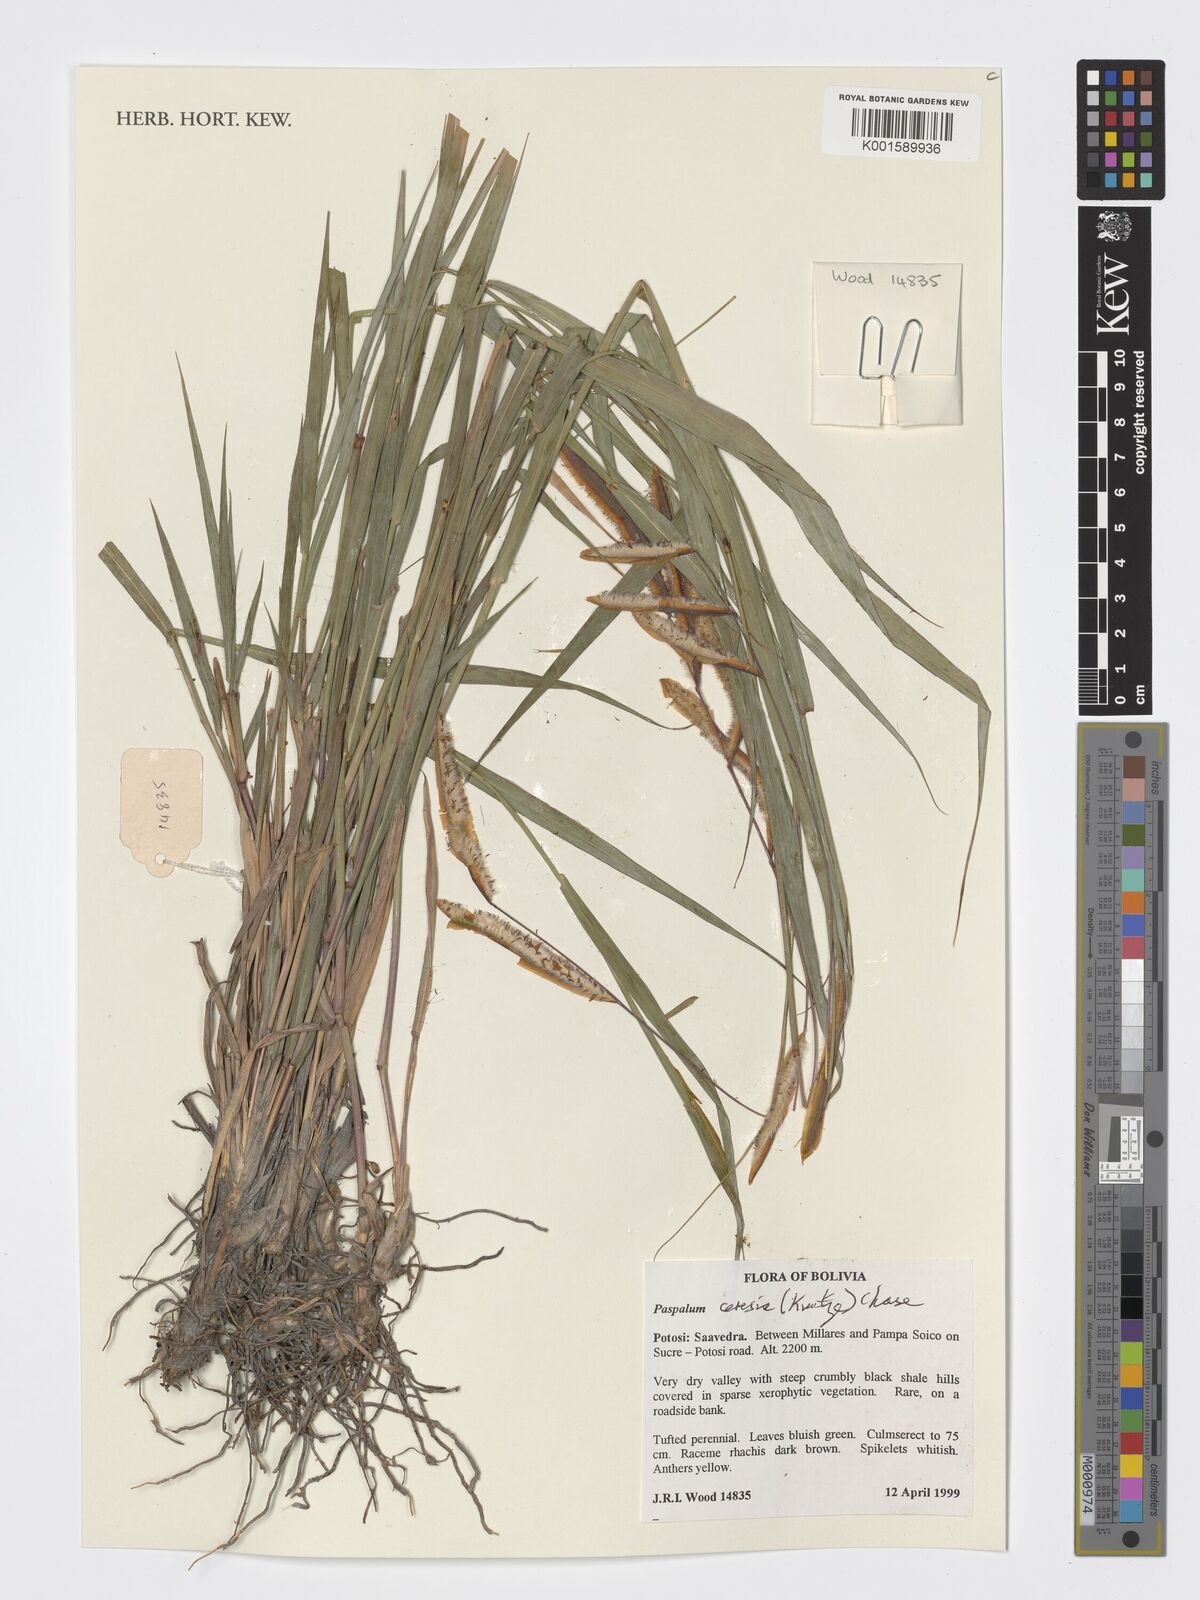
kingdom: Plantae
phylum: Tracheophyta
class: Liliopsida
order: Poales
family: Poaceae
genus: Paspalum
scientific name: Paspalum ceresia
